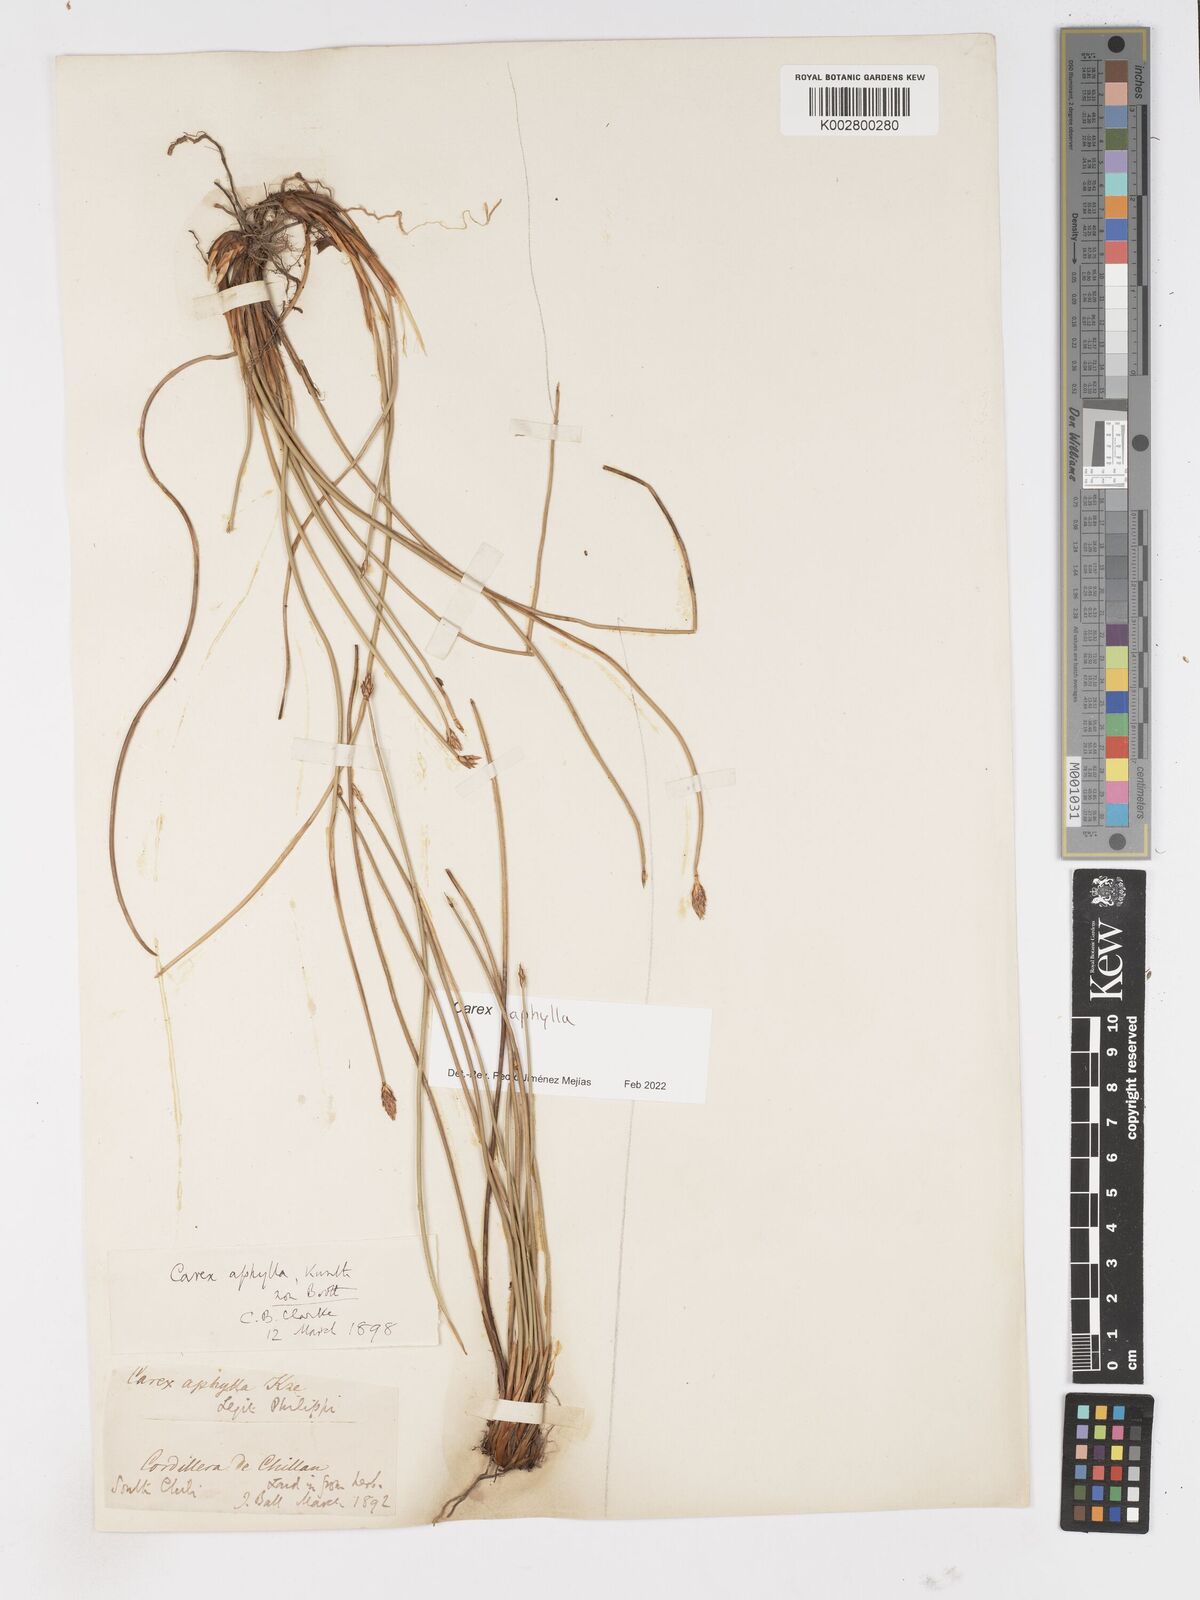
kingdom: Plantae
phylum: Tracheophyta
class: Liliopsida
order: Poales
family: Cyperaceae
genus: Carex
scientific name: Carex aphylla
